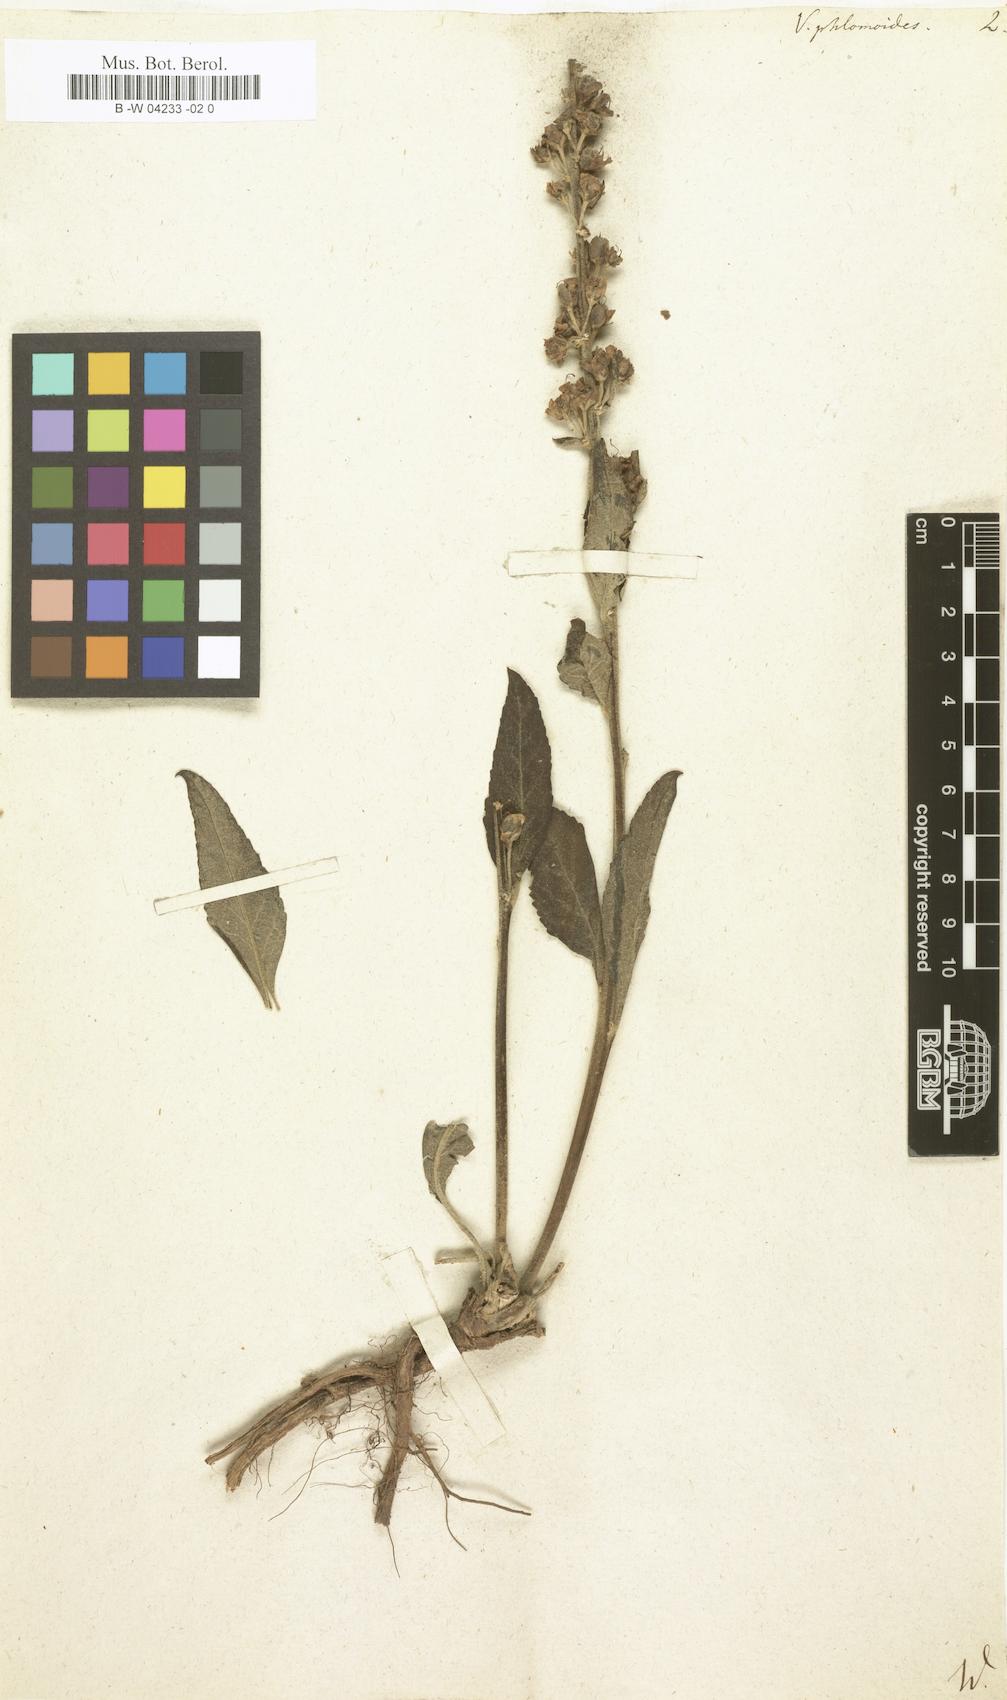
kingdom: Plantae
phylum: Tracheophyta
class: Magnoliopsida
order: Lamiales
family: Scrophulariaceae
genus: Verbascum
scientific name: Verbascum phlomoides
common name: Orange mullein
